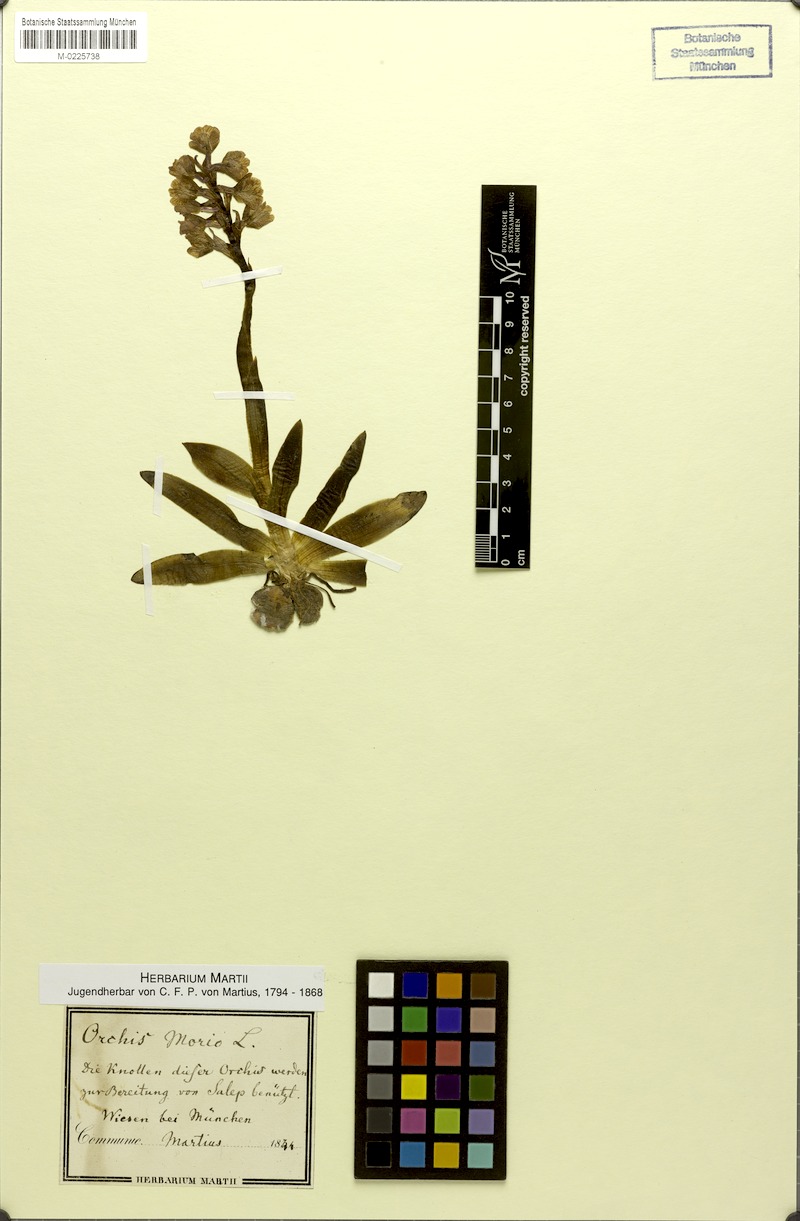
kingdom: Plantae
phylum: Tracheophyta
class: Liliopsida
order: Asparagales
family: Orchidaceae
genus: Anacamptis
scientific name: Anacamptis morio
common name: Green-winged orchid
